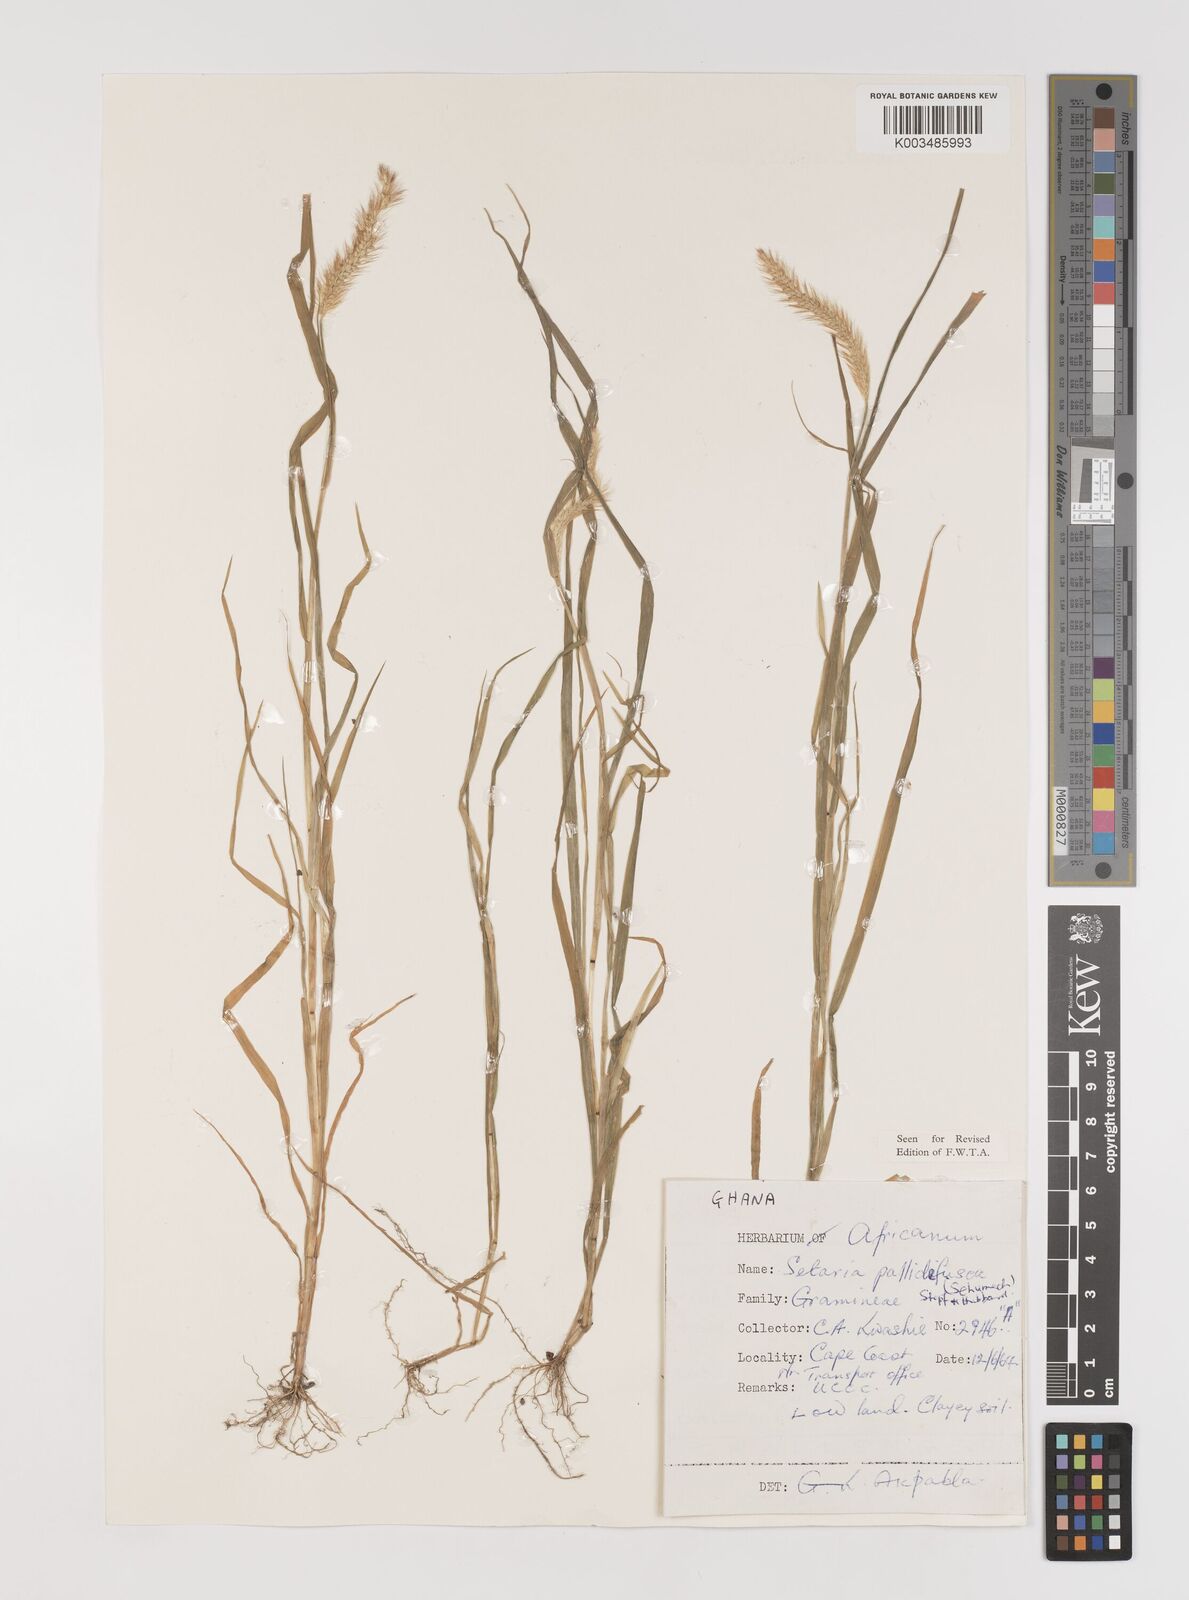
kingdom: Plantae
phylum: Tracheophyta
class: Liliopsida
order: Poales
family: Poaceae
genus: Setaria
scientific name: Setaria pumila
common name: Yellow bristle-grass
